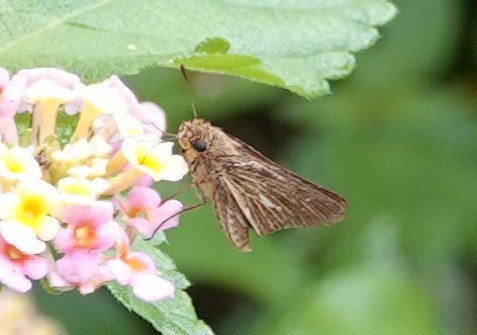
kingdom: Animalia
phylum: Arthropoda
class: Insecta
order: Lepidoptera
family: Hesperiidae
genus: Panoquina
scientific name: Panoquina panoquin
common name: Salt Marsh Skipper
